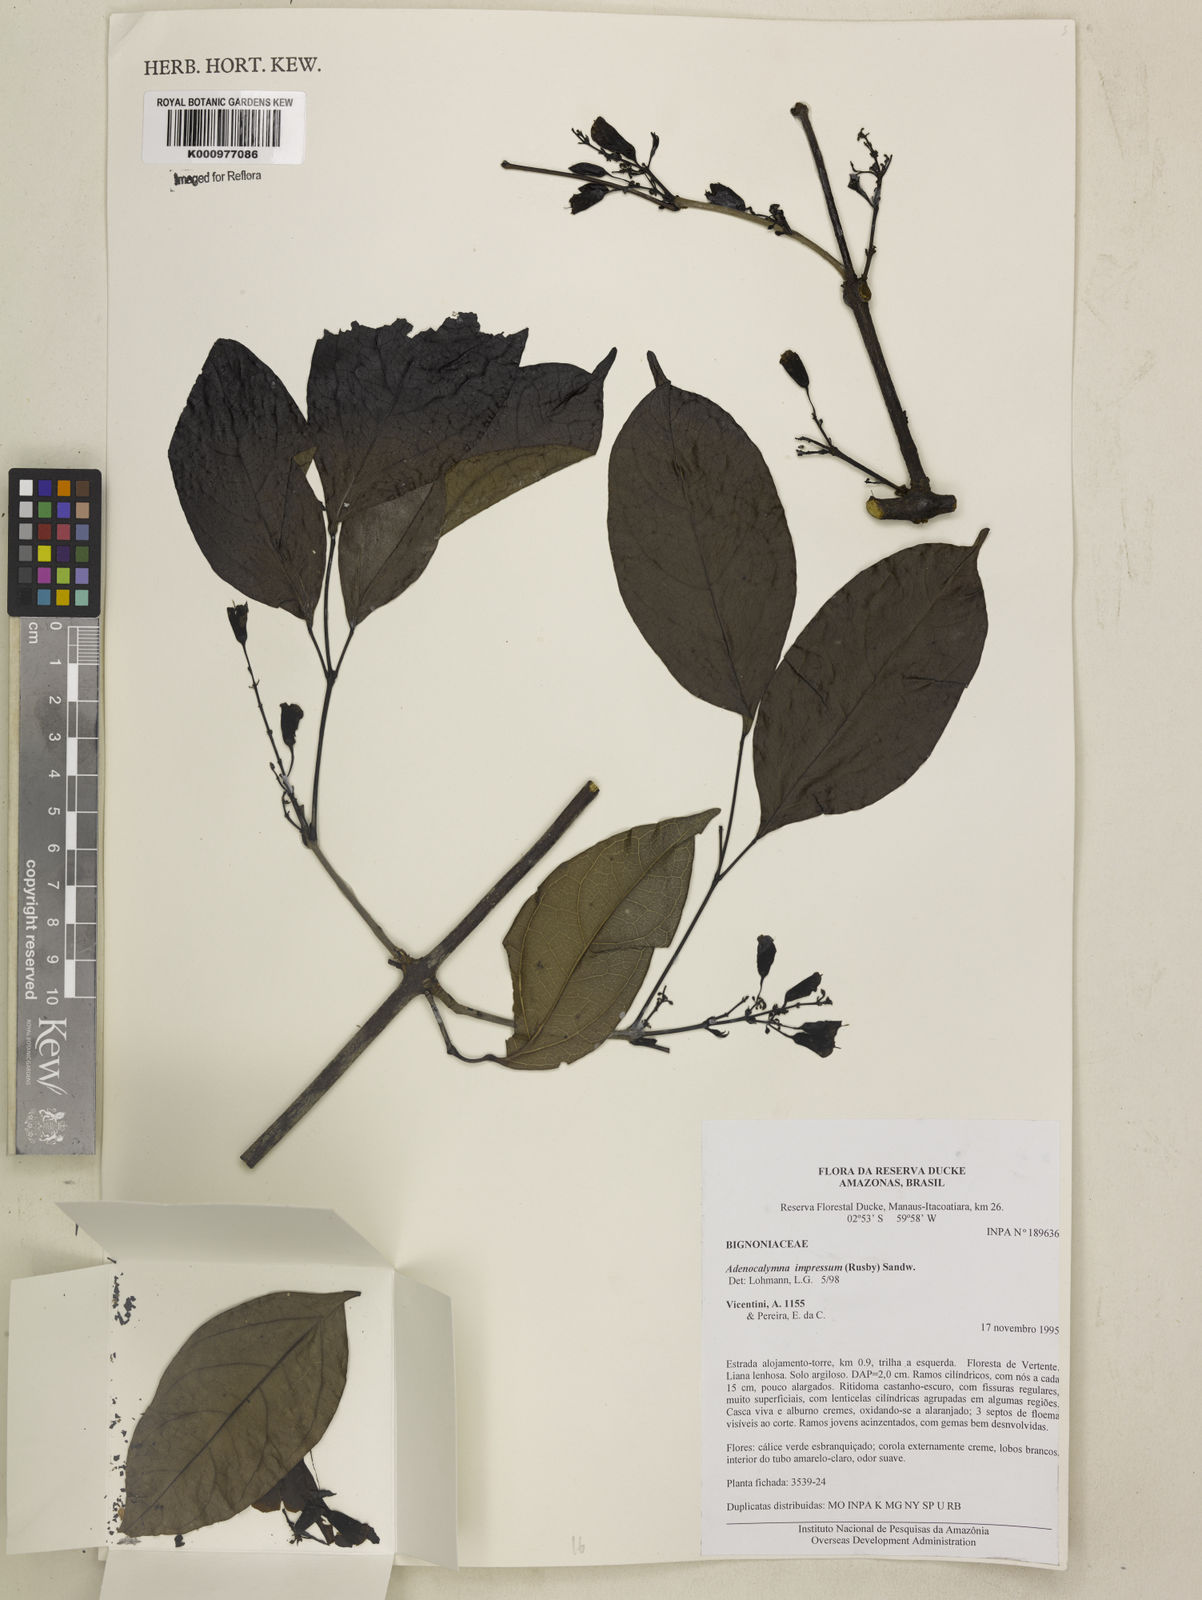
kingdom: Plantae
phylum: Tracheophyta
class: Magnoliopsida
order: Lamiales
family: Bignoniaceae
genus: Adenocalymma
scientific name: Adenocalymma impressum
